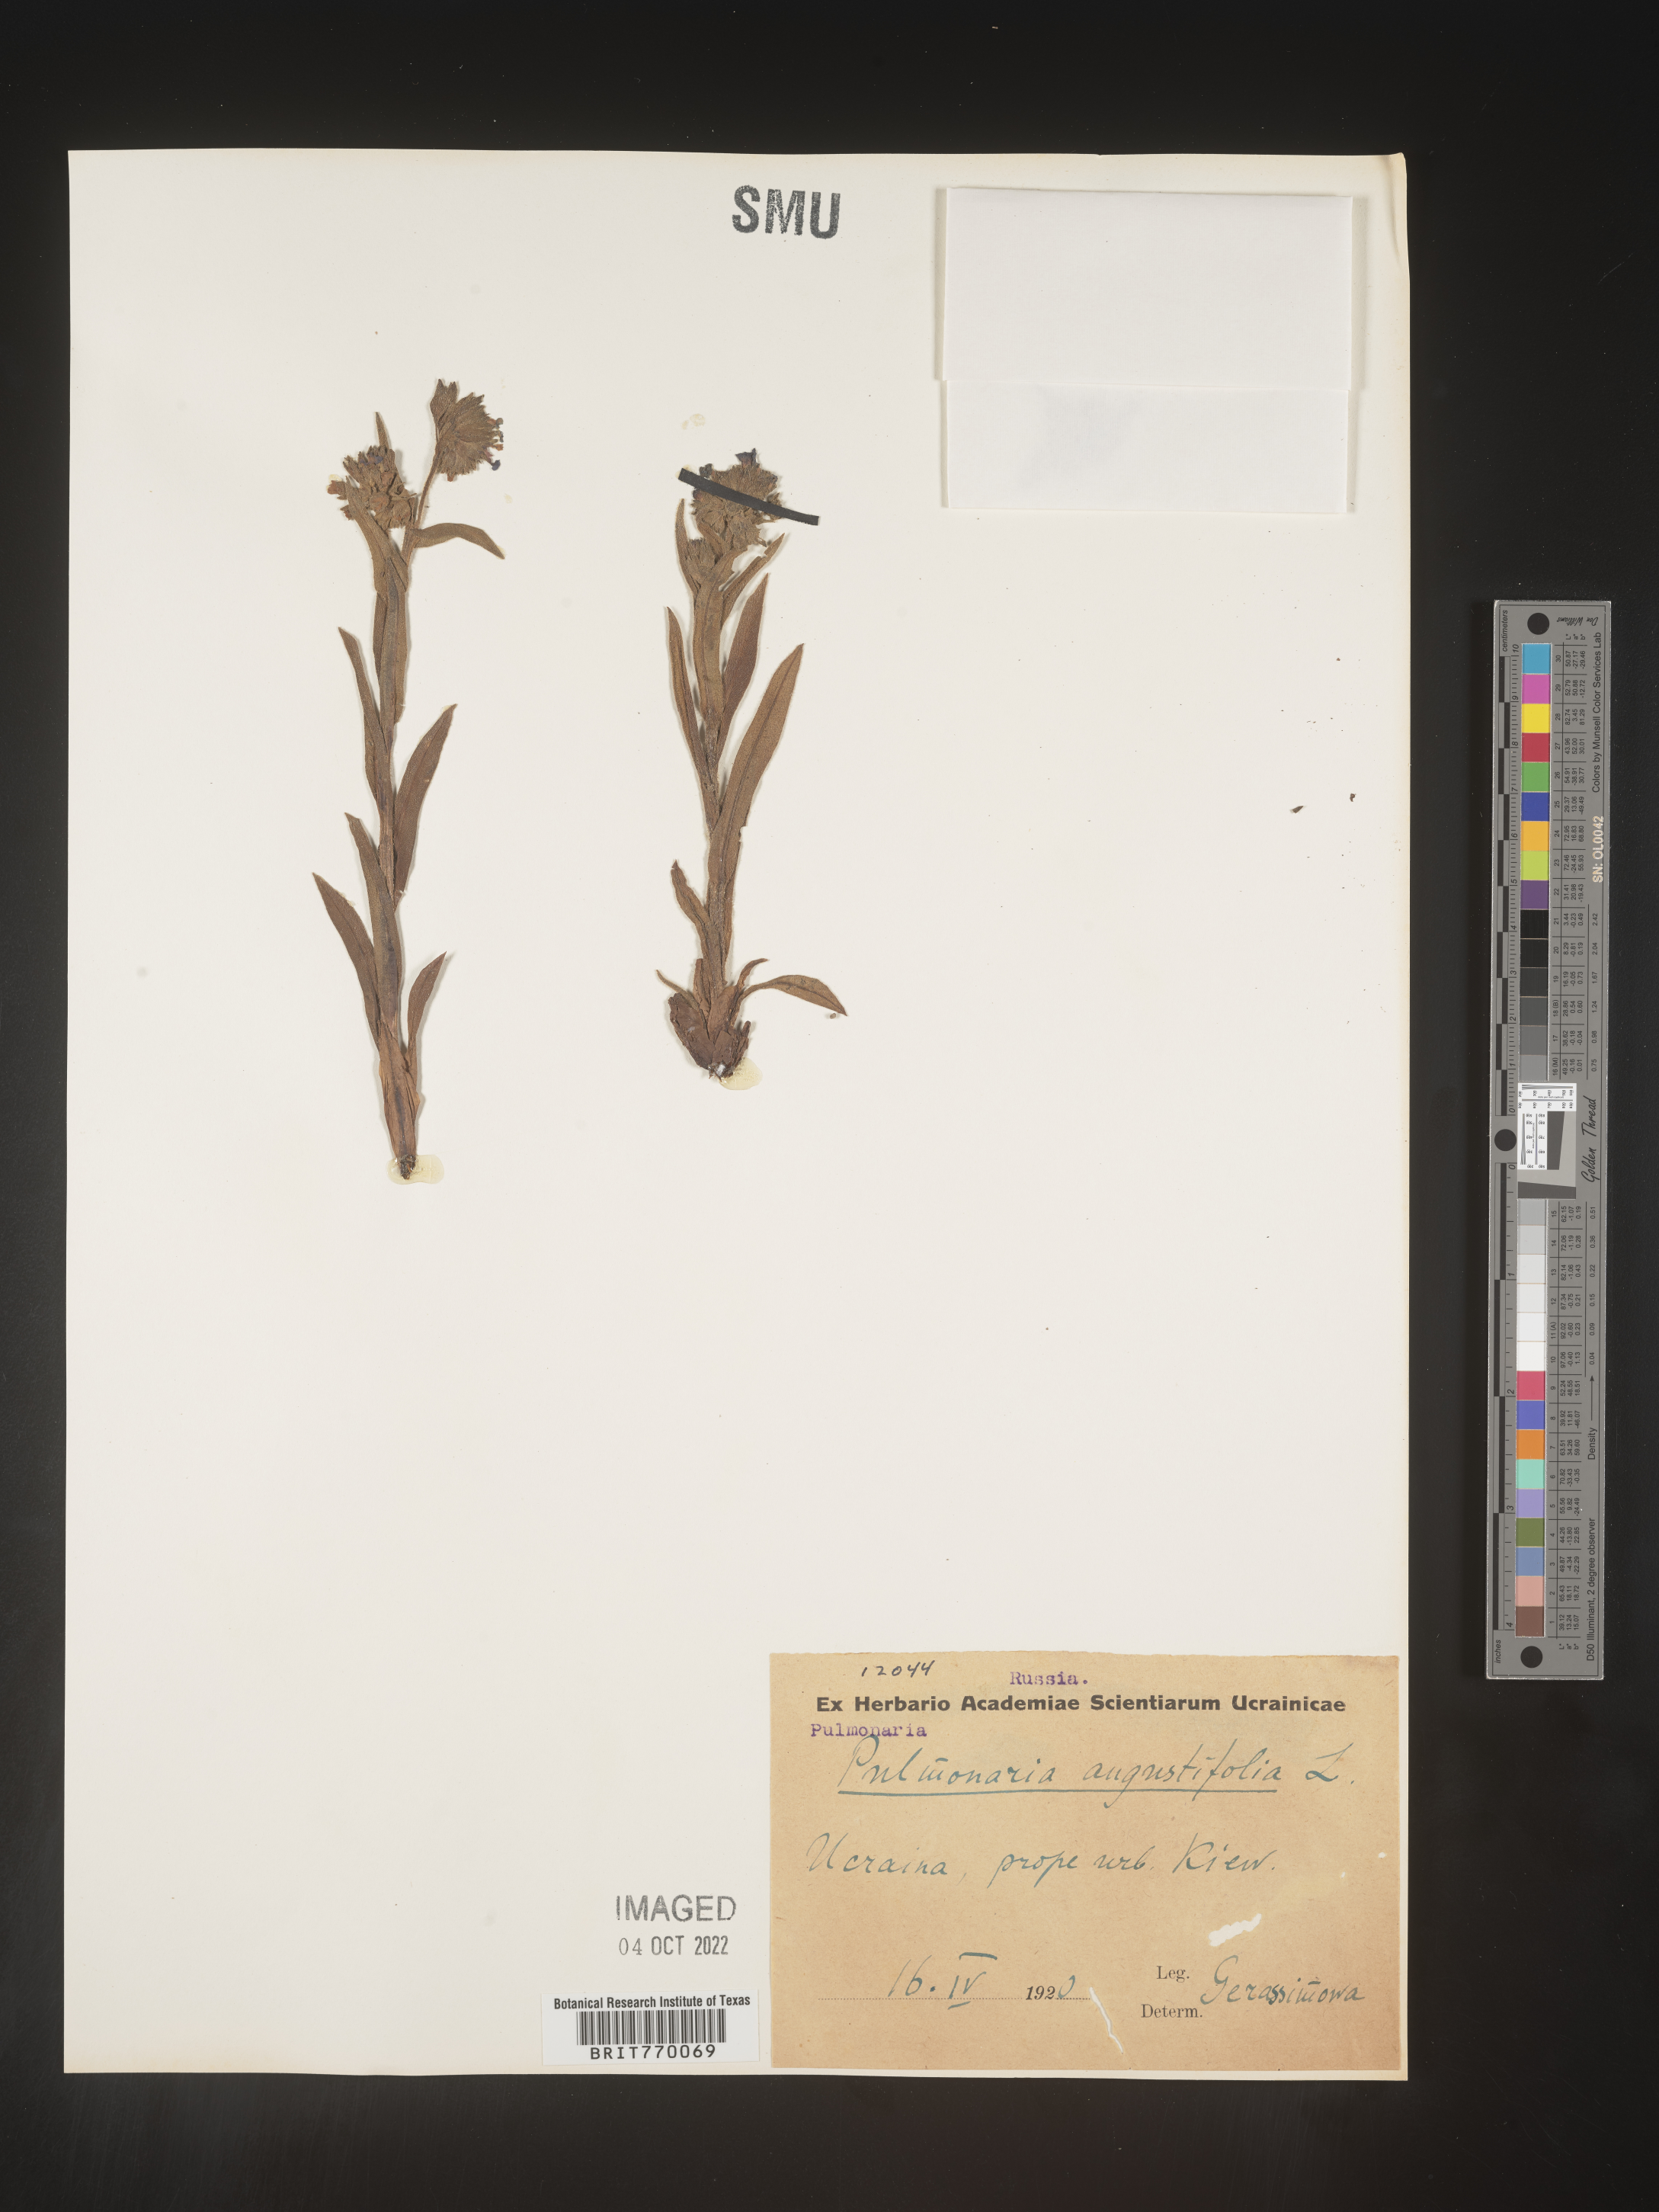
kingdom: Plantae
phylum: Tracheophyta
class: Magnoliopsida
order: Boraginales
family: Boraginaceae
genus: Pulmonaria
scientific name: Pulmonaria
